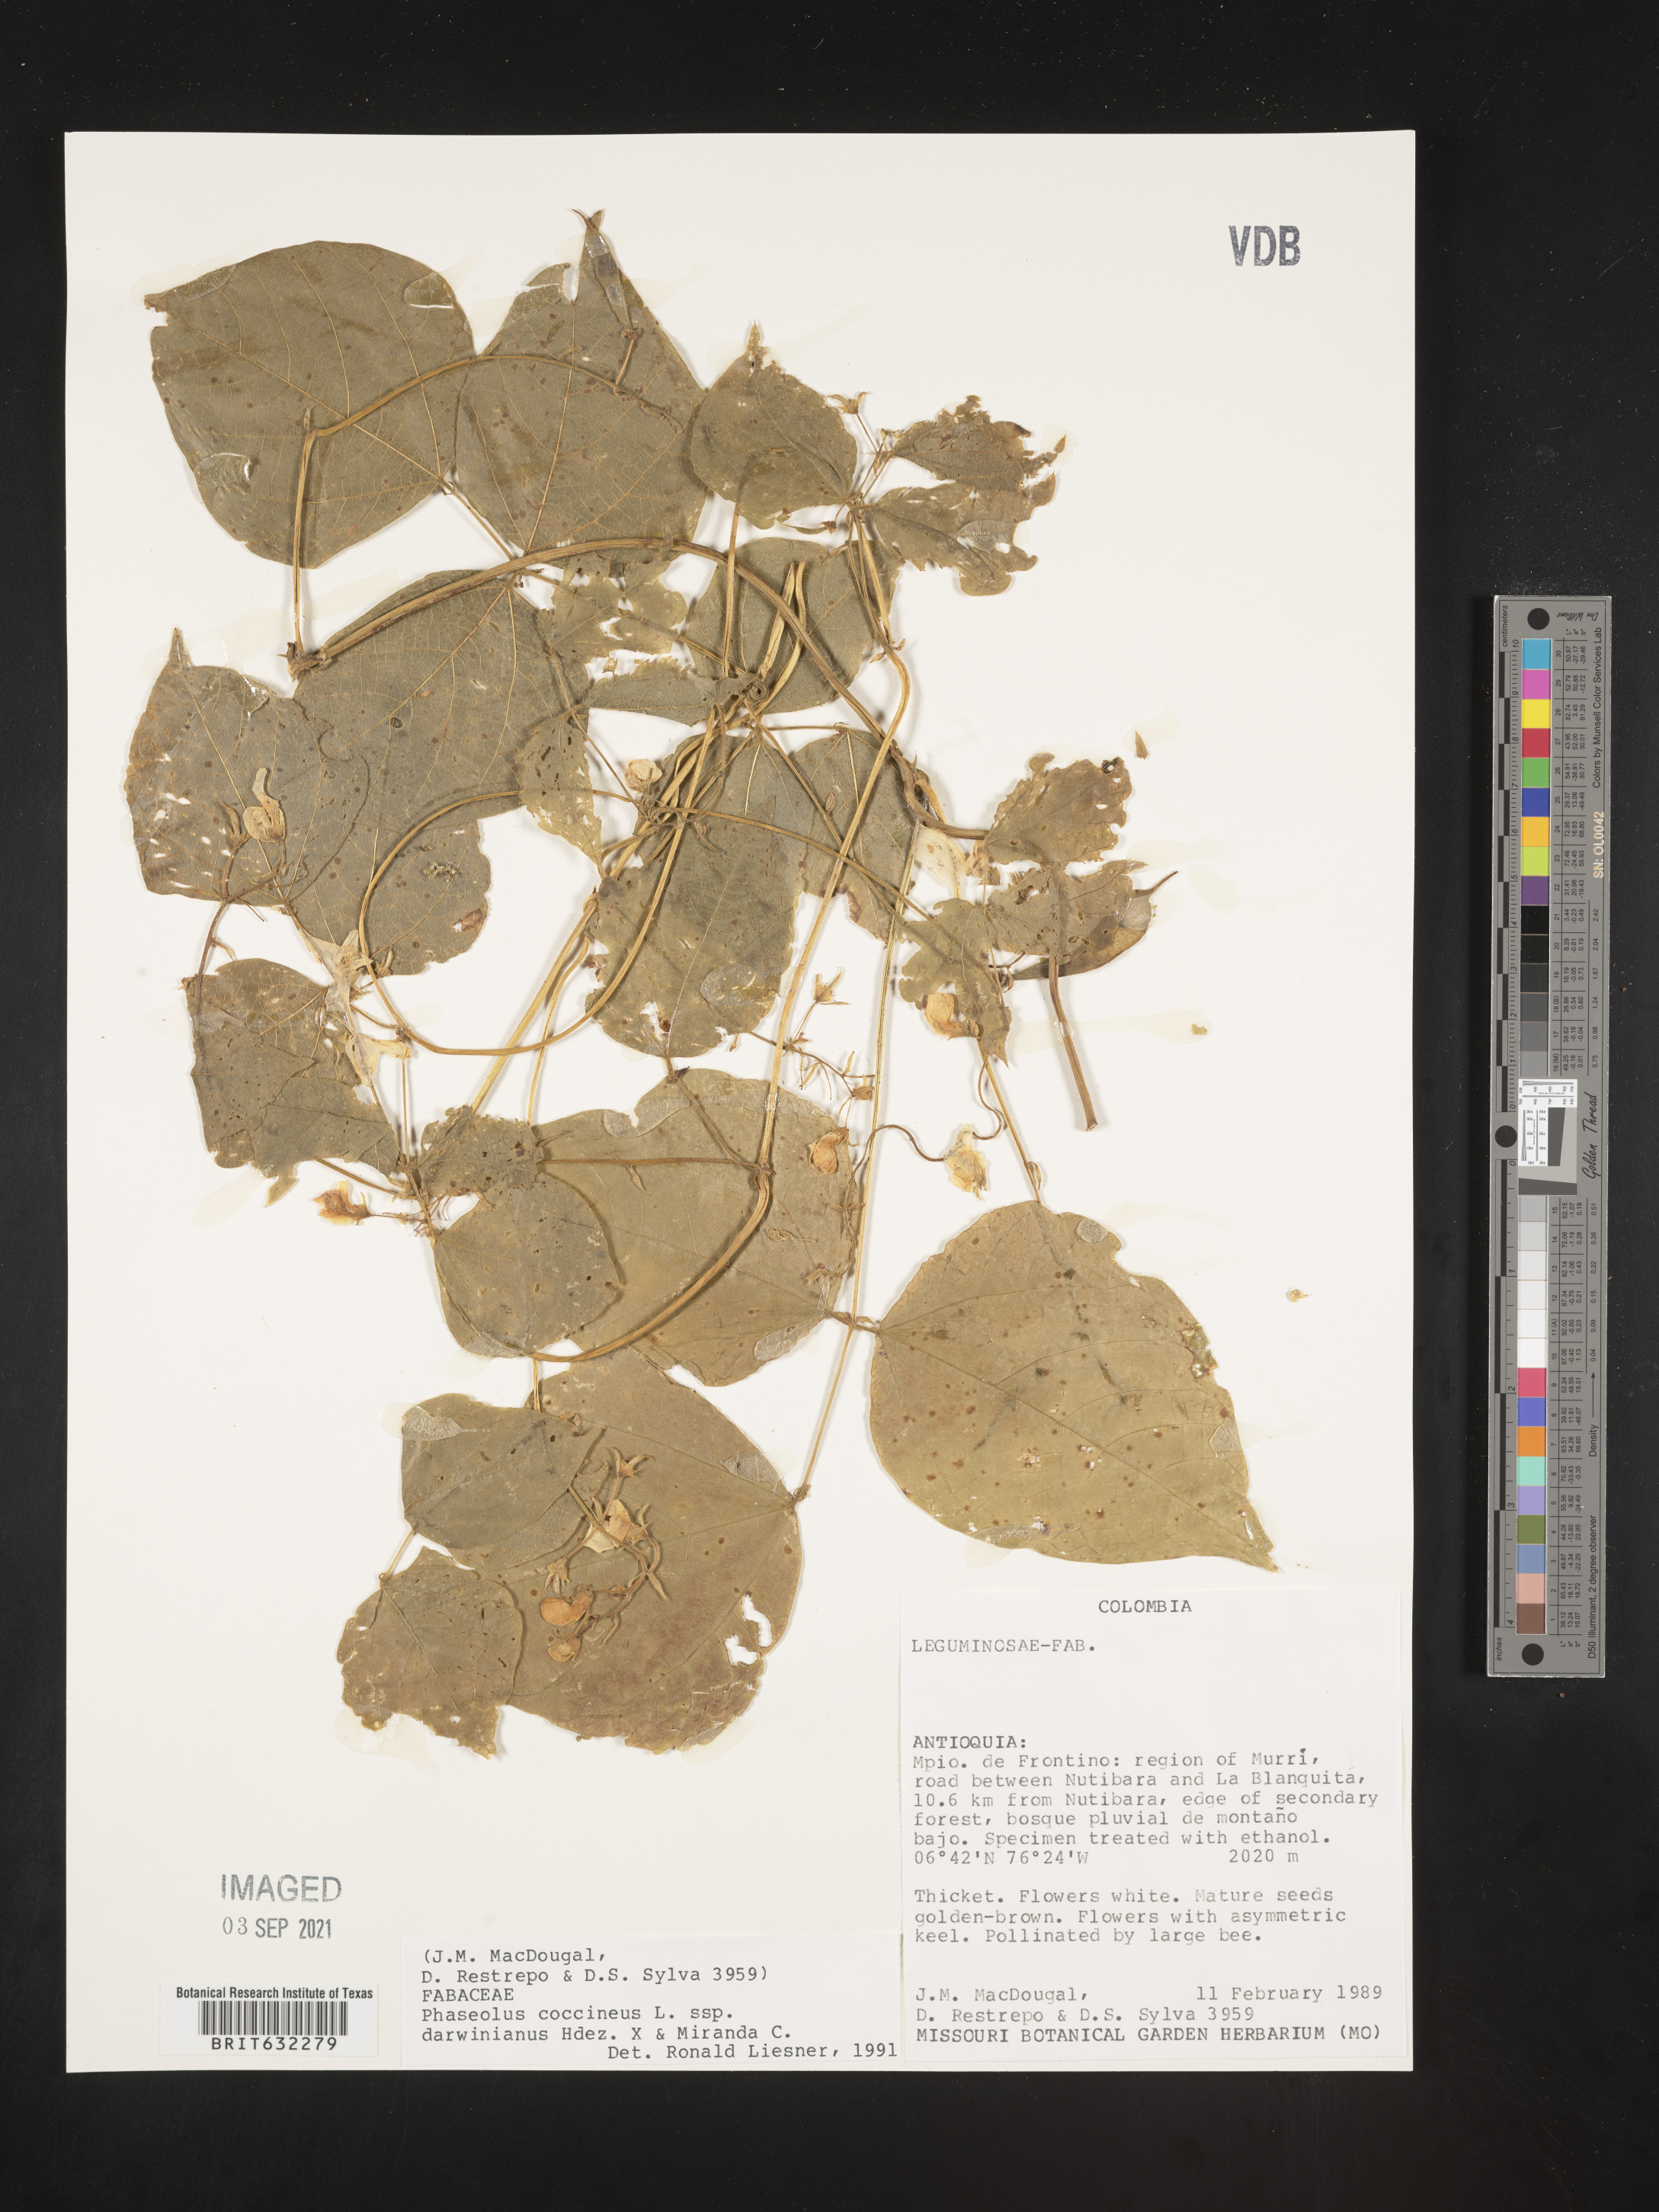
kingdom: Plantae
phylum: Tracheophyta
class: Magnoliopsida
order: Fabales
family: Fabaceae
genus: Phaseolus
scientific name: Phaseolus
